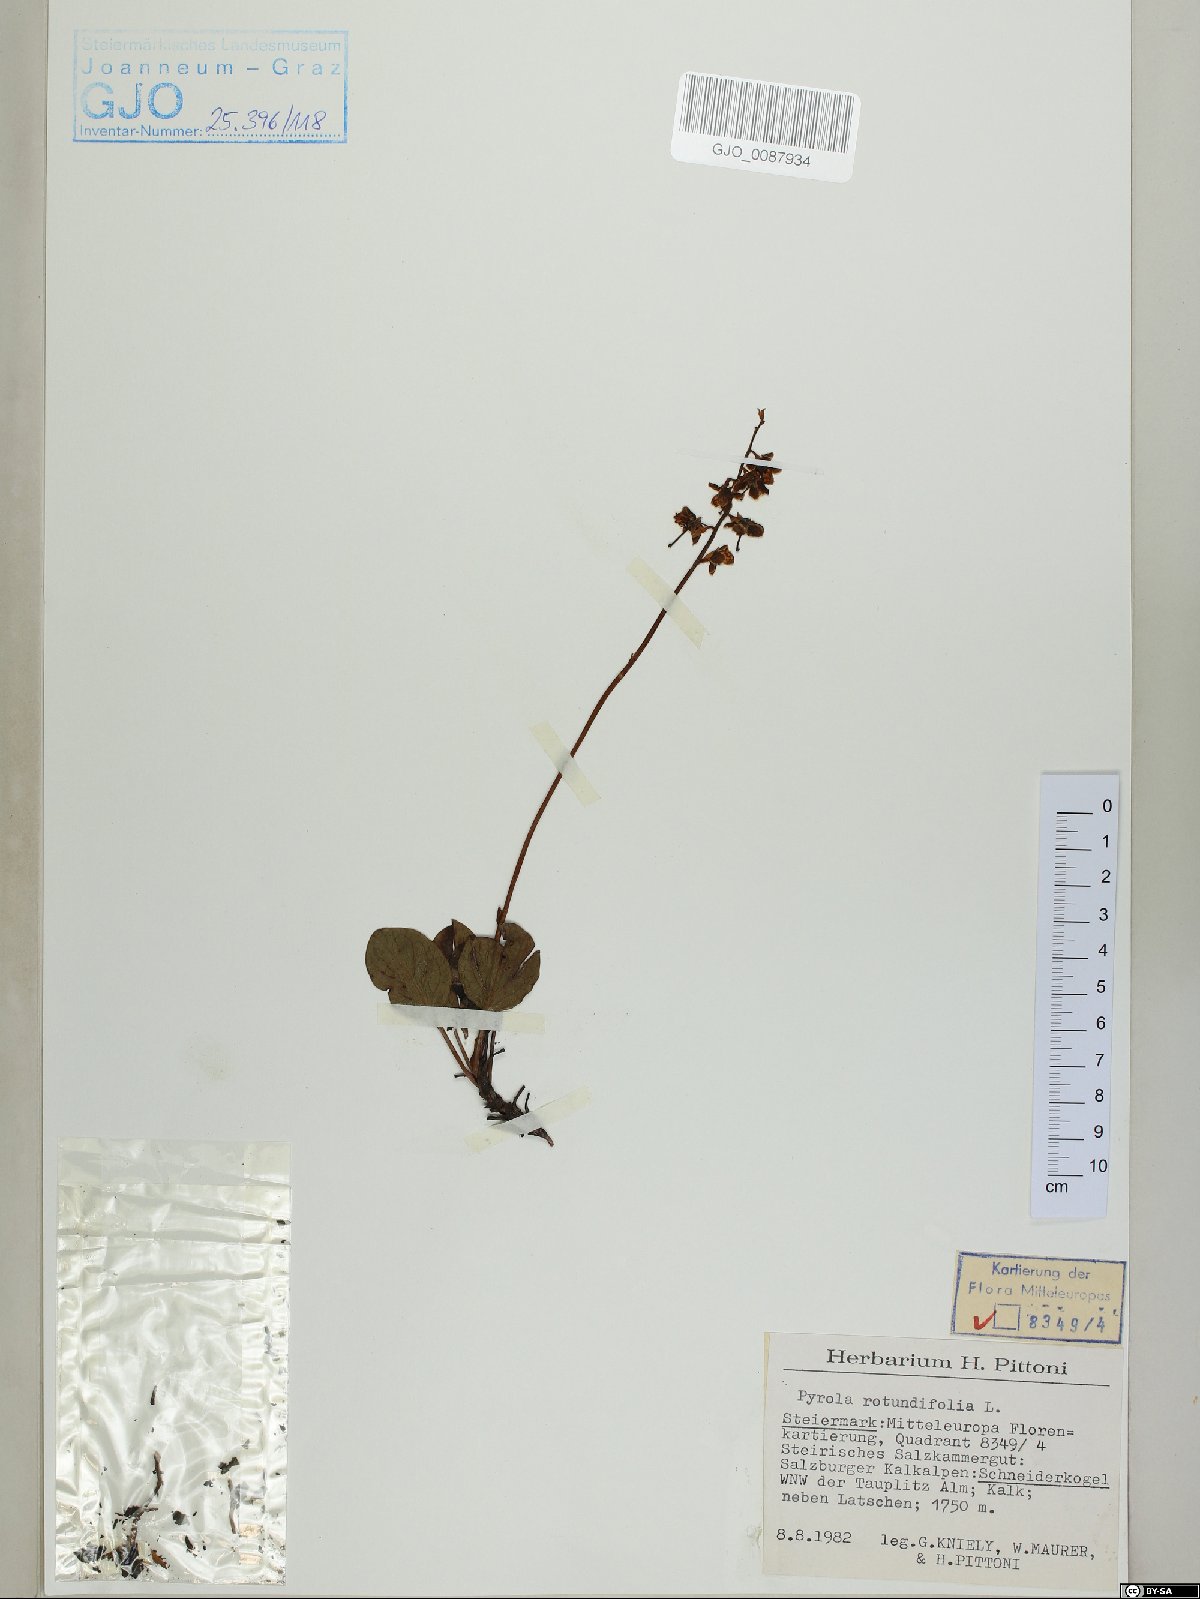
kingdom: Plantae
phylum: Tracheophyta
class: Magnoliopsida
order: Ericales
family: Ericaceae
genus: Pyrola
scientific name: Pyrola rotundifolia
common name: Round-leaved wintergreen
